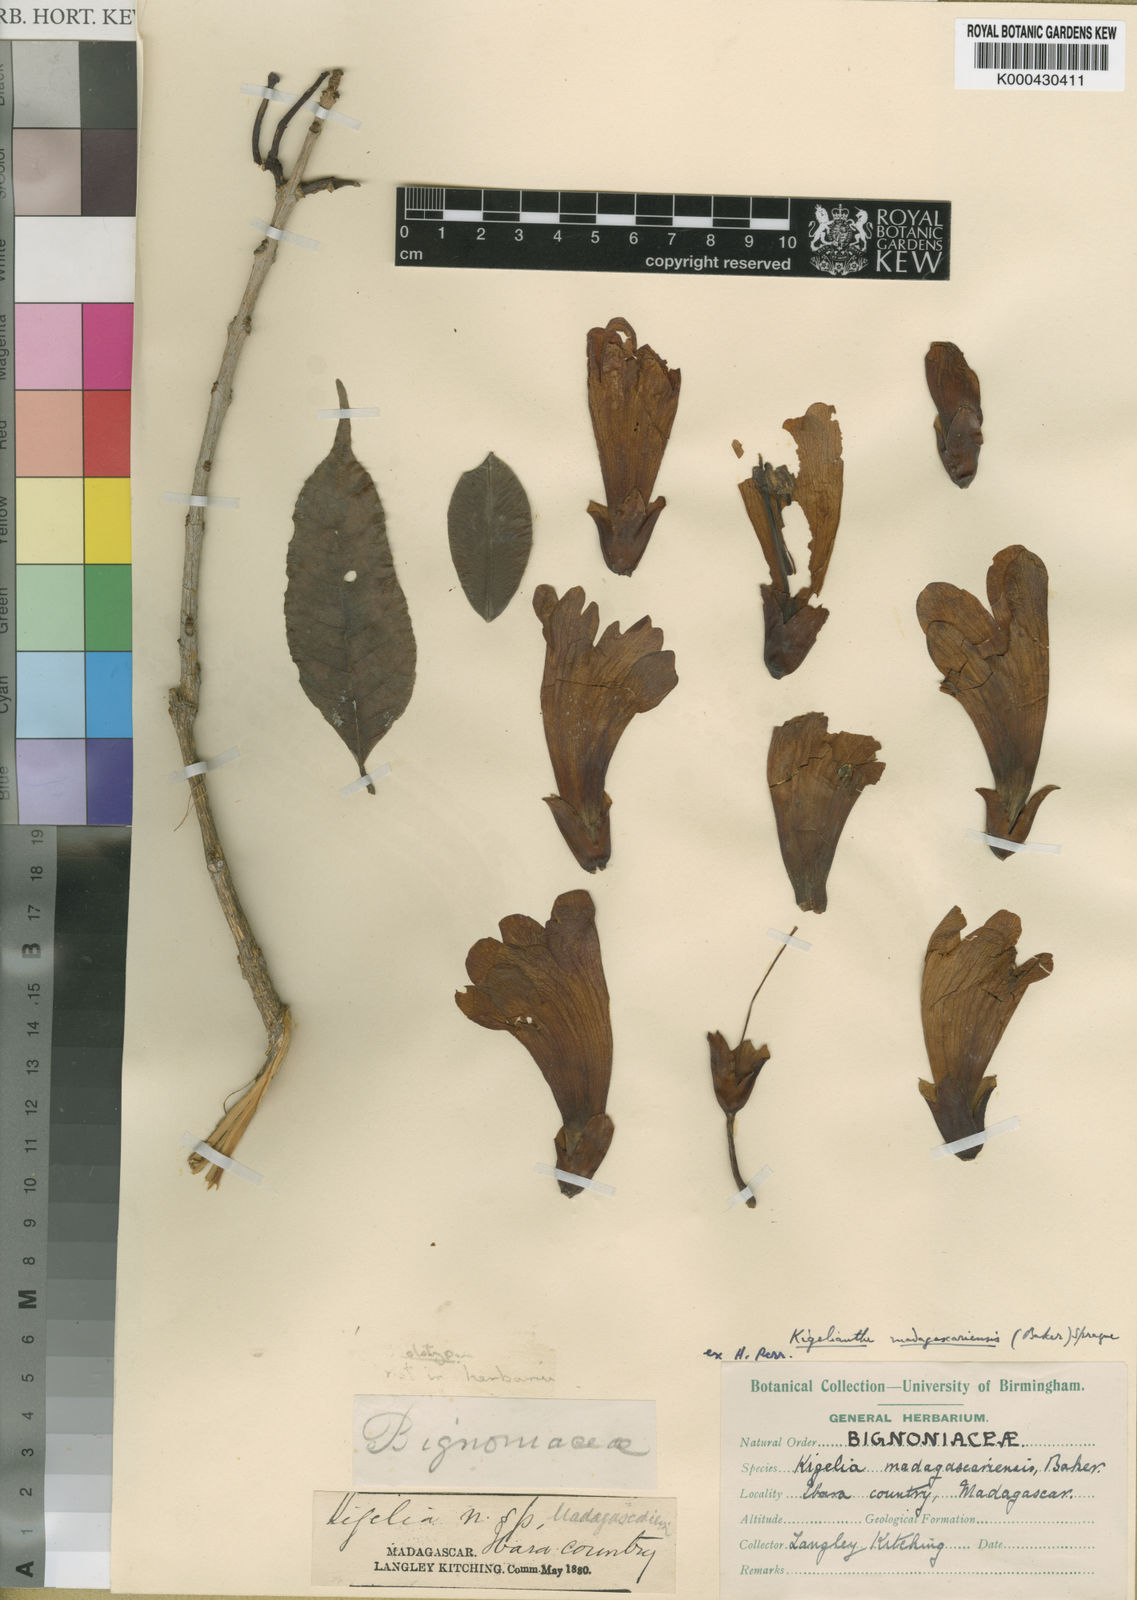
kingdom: Plantae
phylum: Tracheophyta
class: Magnoliopsida
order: Lamiales
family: Bignoniaceae
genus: Fernandoa
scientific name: Fernandoa madagascariensis
